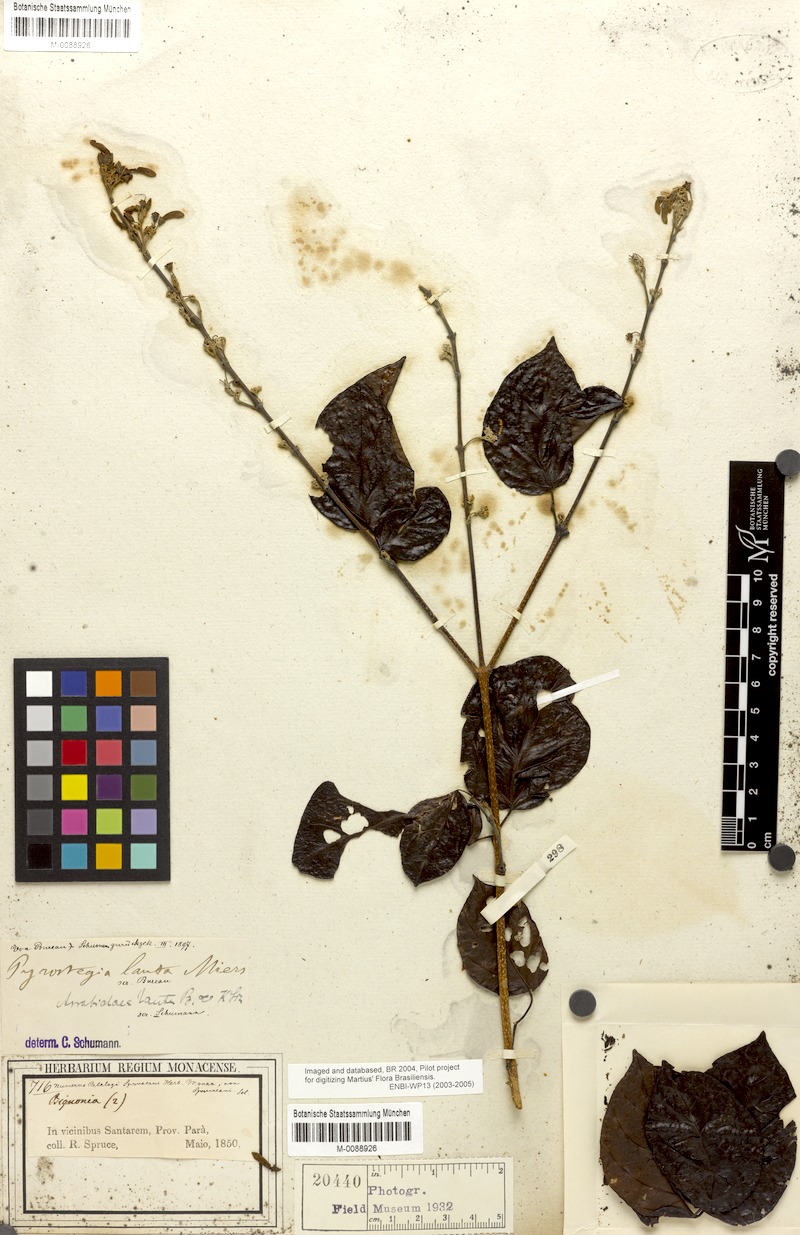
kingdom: Plantae
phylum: Tracheophyta
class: Magnoliopsida
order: Lamiales
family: Bignoniaceae
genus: Fridericia
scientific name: Fridericia lauta
